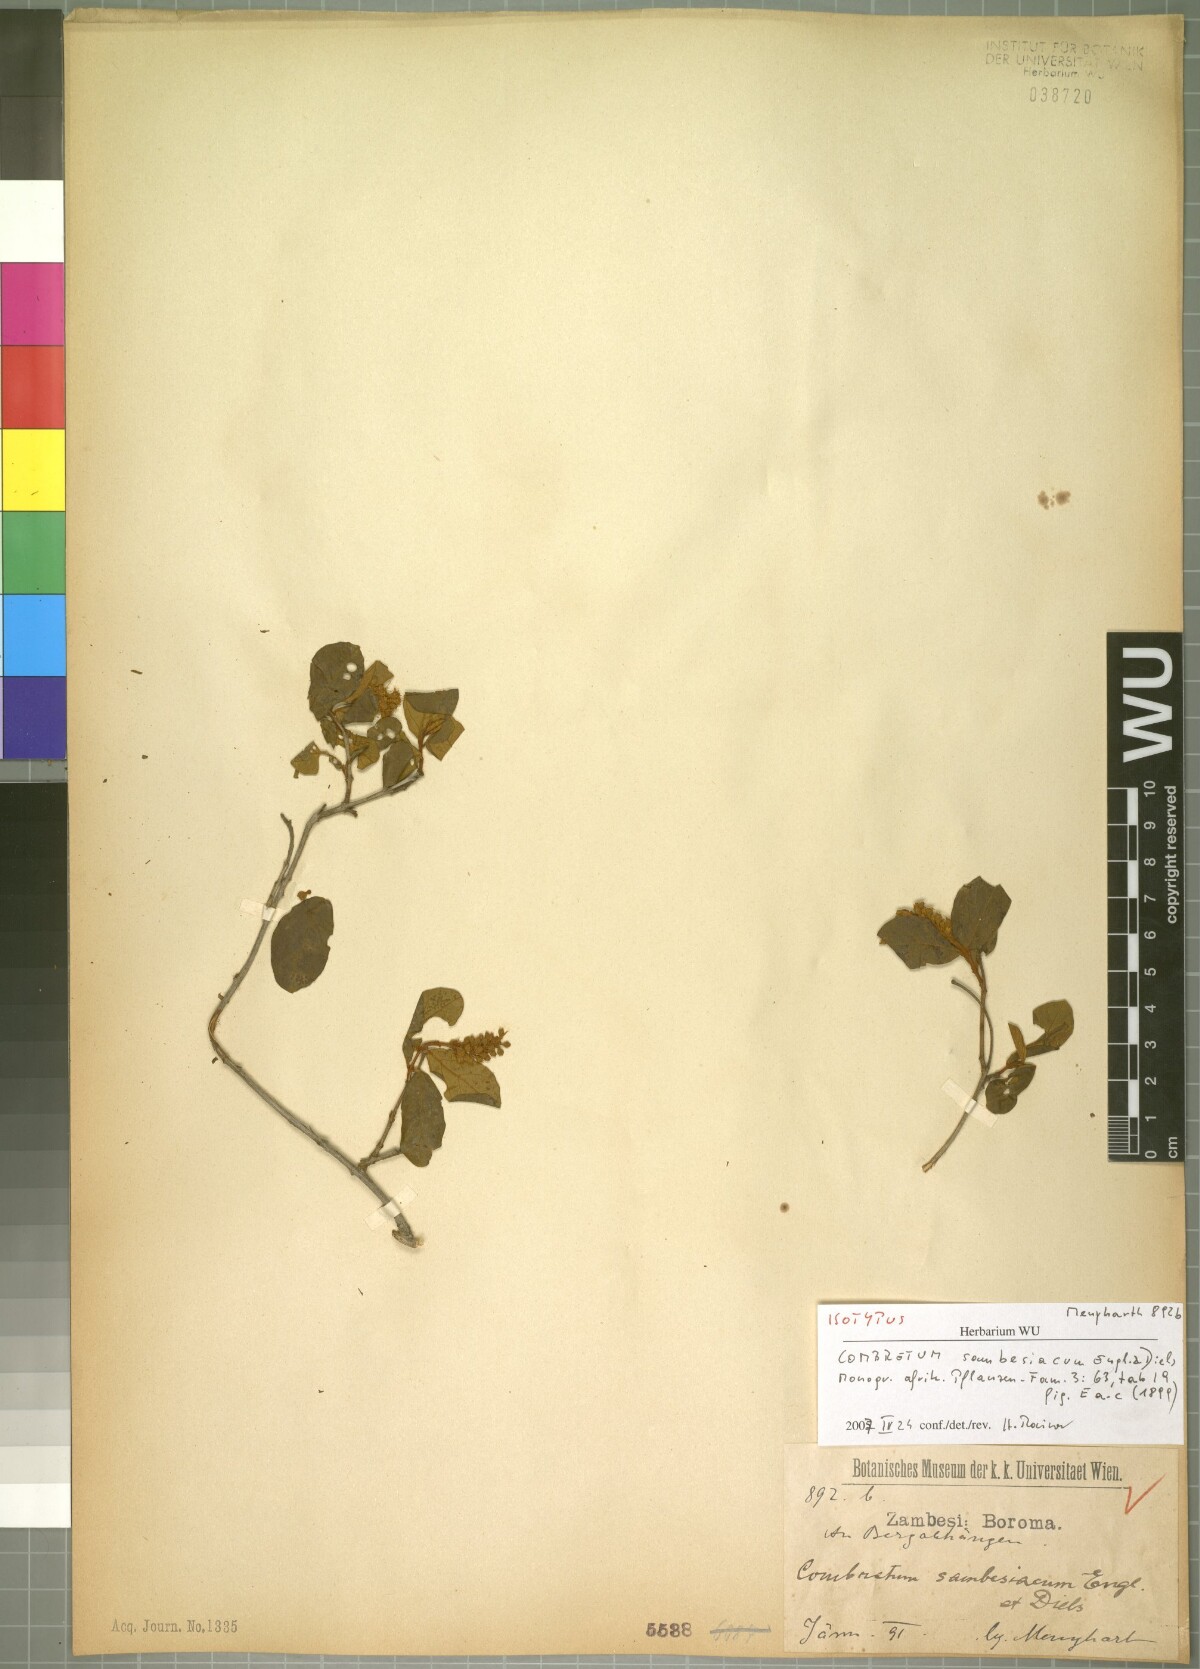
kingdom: Plantae
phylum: Tracheophyta
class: Magnoliopsida
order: Myrtales
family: Combretaceae
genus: Combretum
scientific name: Combretum hereroense
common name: Russet bushwillow
